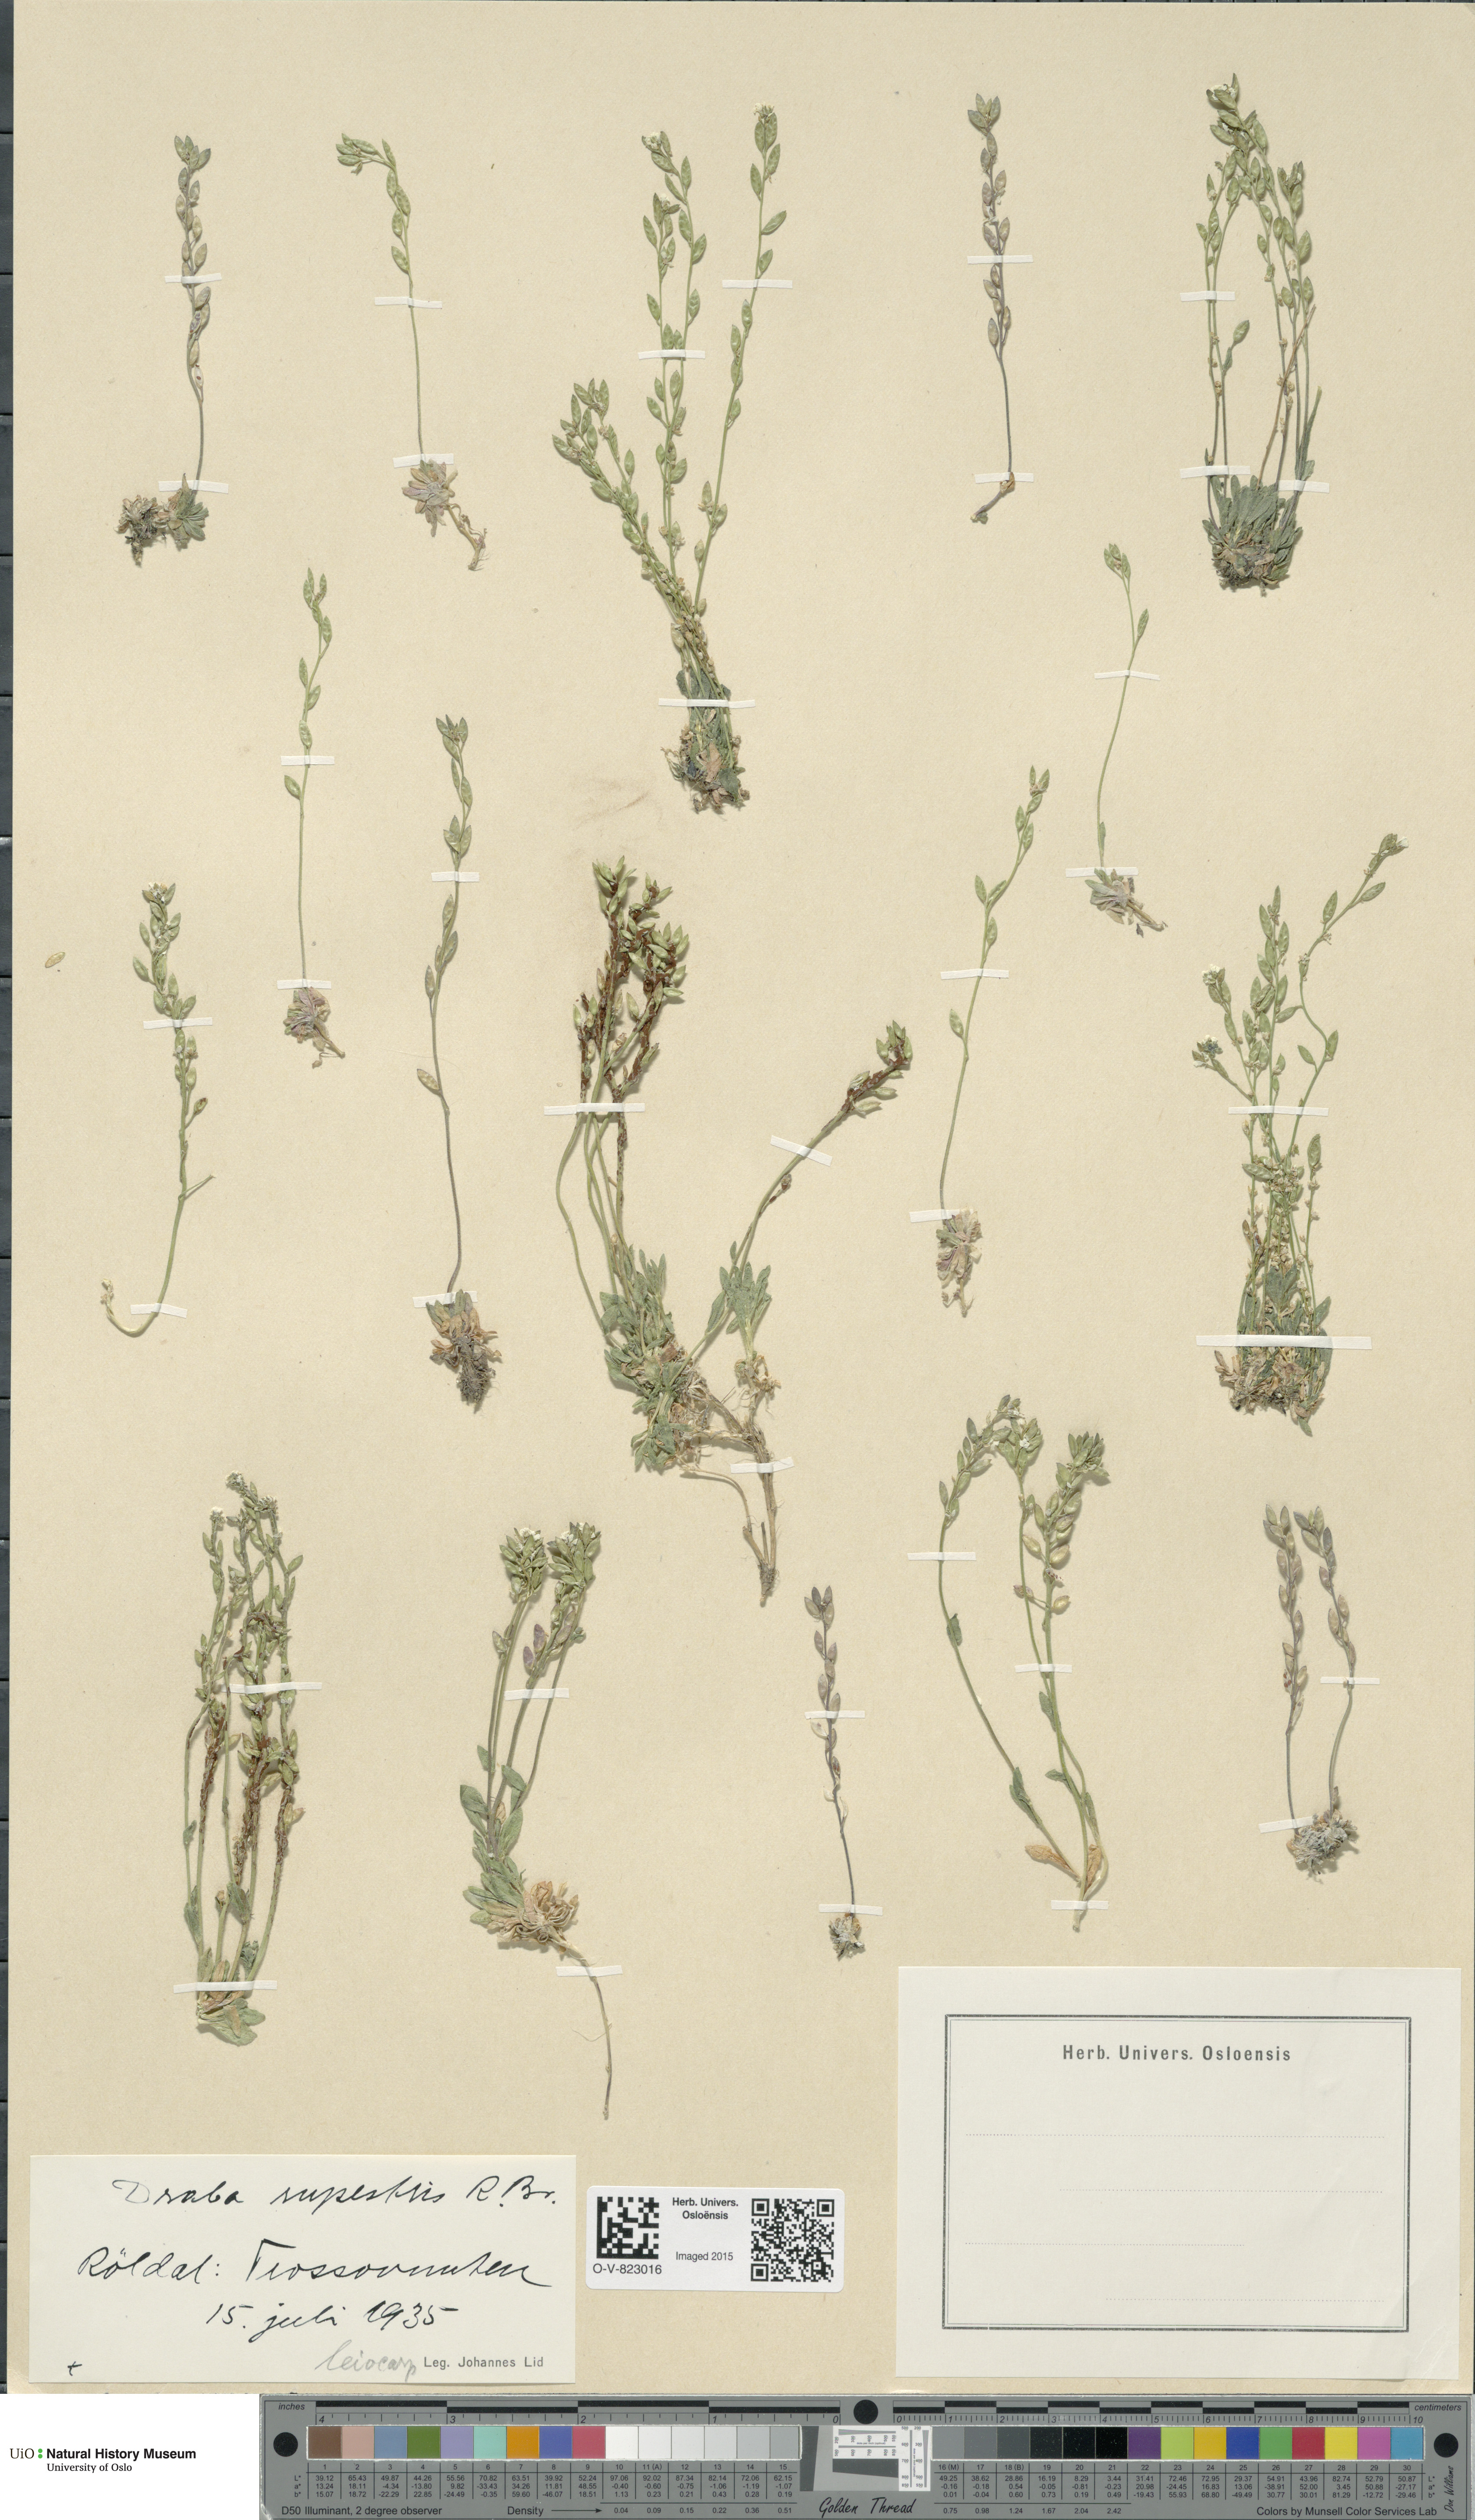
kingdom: Plantae
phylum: Tracheophyta
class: Magnoliopsida
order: Brassicales
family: Brassicaceae
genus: Draba
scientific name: Draba norvegica
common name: Rock whitlowgrass
